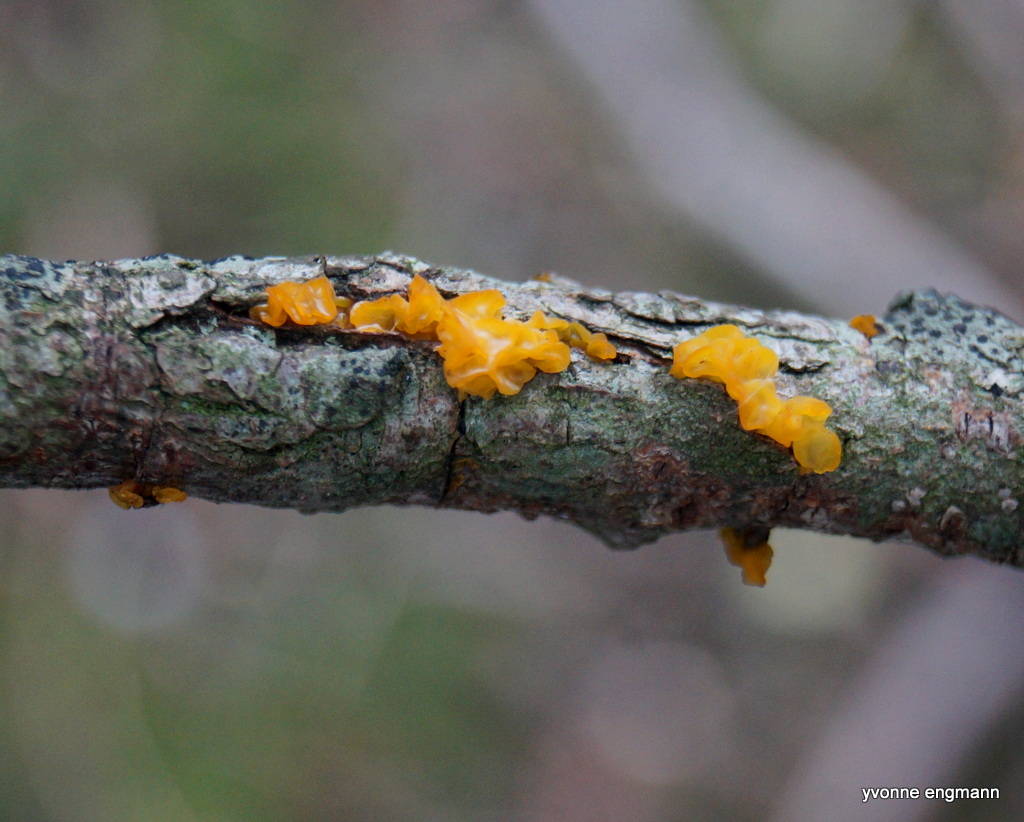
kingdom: Fungi
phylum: Basidiomycota
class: Tremellomycetes
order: Tremellales
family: Tremellaceae
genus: Tremella
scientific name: Tremella mesenterica
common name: gul bævresvamp
